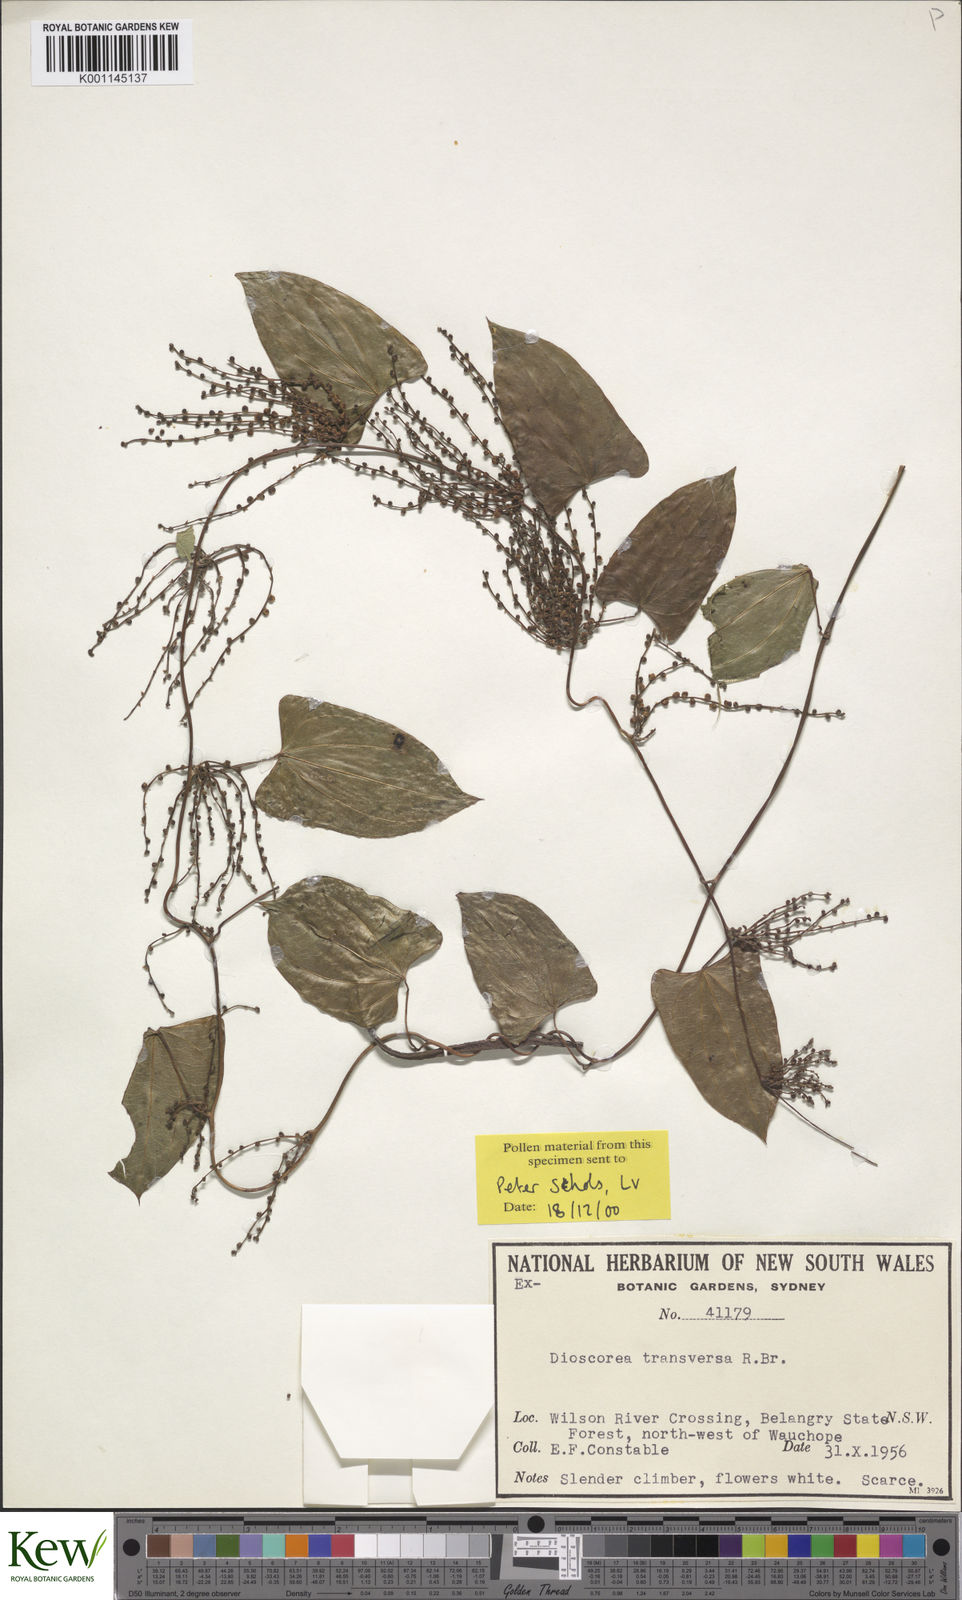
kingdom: Plantae
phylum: Tracheophyta
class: Liliopsida
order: Dioscoreales
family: Dioscoreaceae
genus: Dioscorea
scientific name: Dioscorea transversa
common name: Long yam
